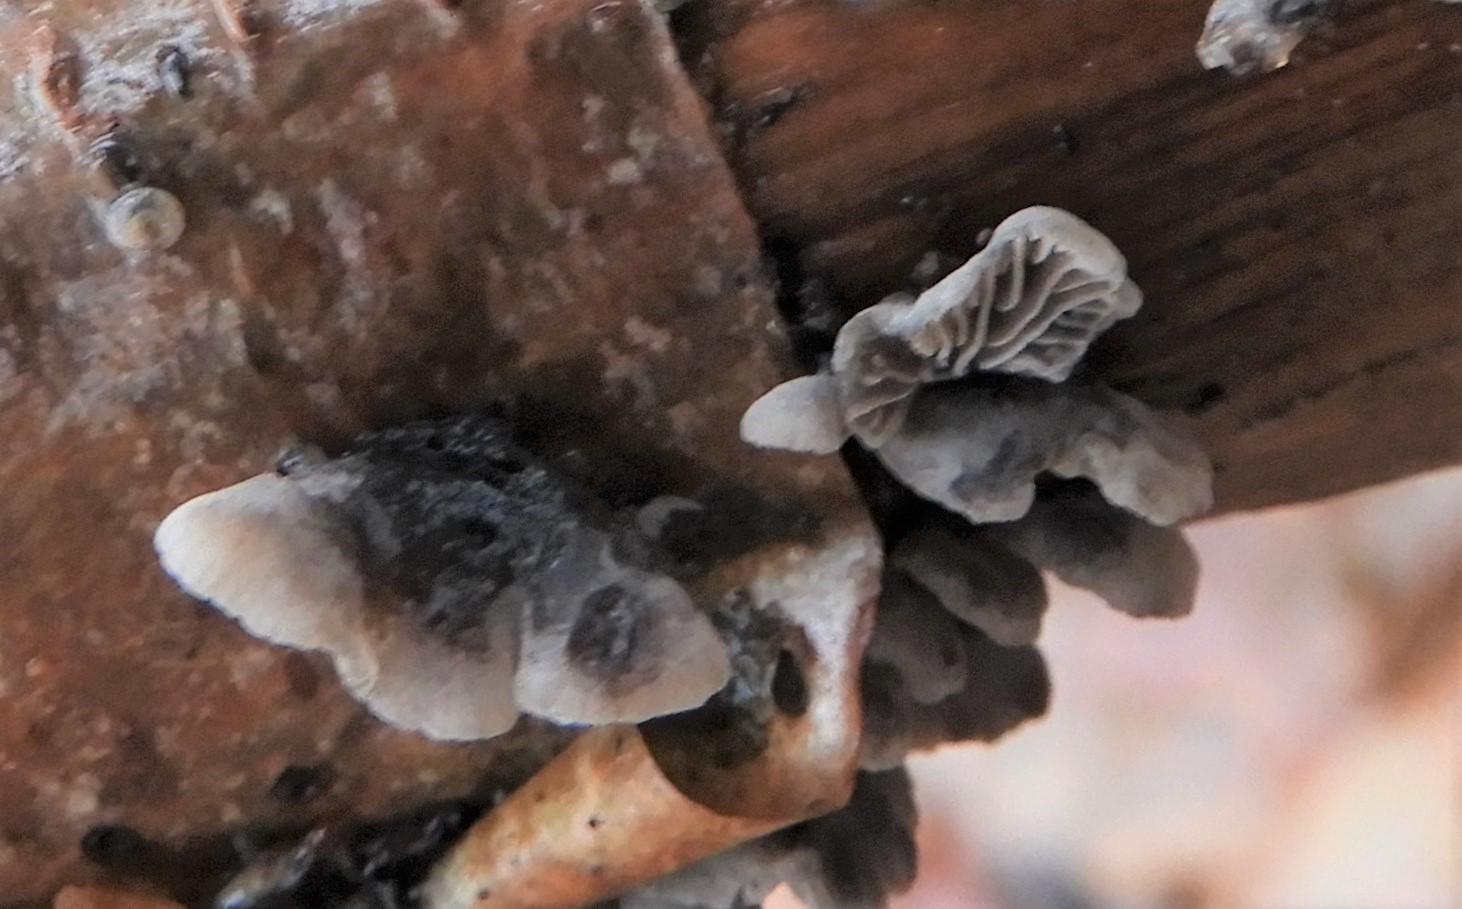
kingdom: Fungi
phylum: Basidiomycota
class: Agaricomycetes
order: Agaricales
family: Pleurotaceae
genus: Resupinatus
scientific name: Resupinatus trichotis
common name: mørkfiltet barkhat
